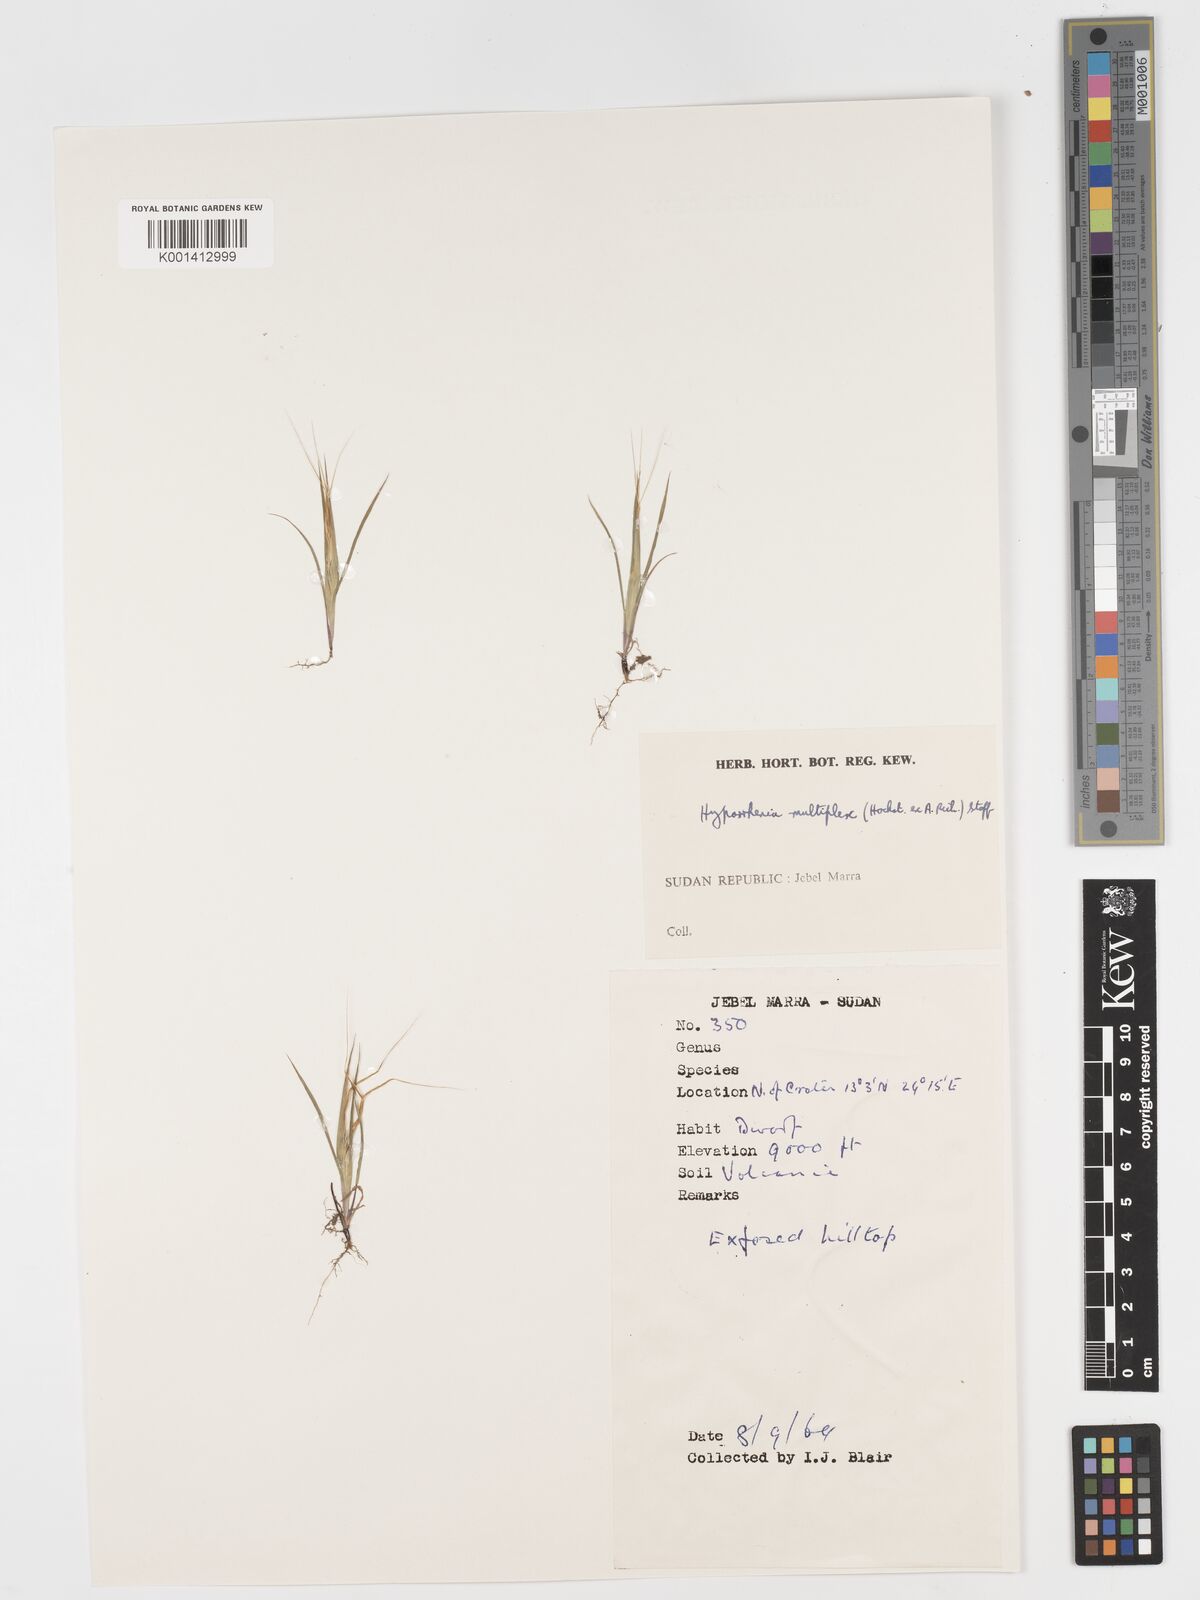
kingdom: Plantae
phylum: Tracheophyta
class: Liliopsida
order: Poales
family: Poaceae
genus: Hyparrhenia
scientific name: Hyparrhenia multiplex
